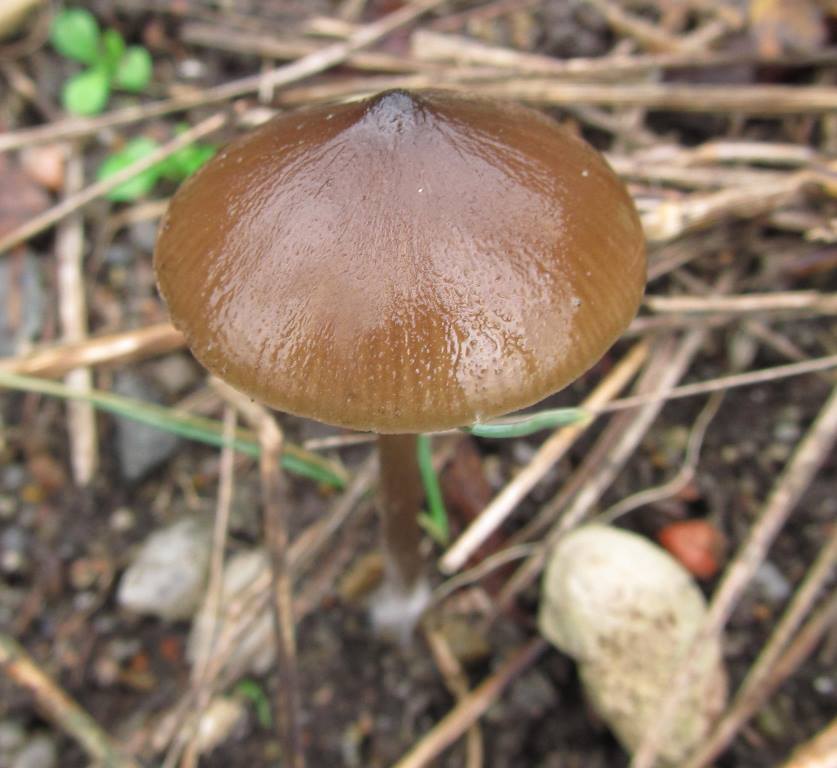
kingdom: Fungi
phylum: Basidiomycota
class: Agaricomycetes
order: Agaricales
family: Entolomataceae
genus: Entoloma
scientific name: Entoloma hebes
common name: krat-rødblad
